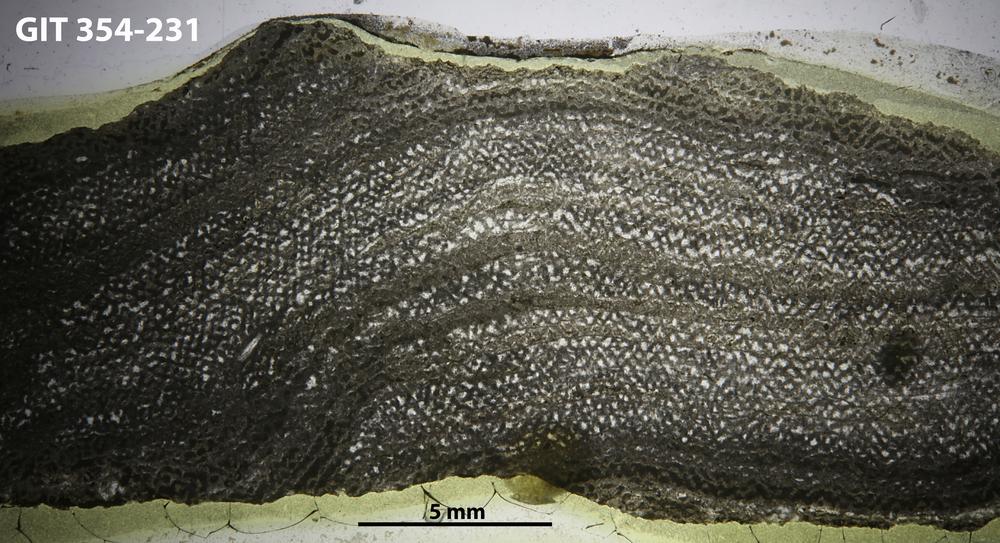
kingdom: Animalia
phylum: Porifera
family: Ecclimadictyidae
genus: Ecclimadictyon
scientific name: Ecclimadictyon porkuni
